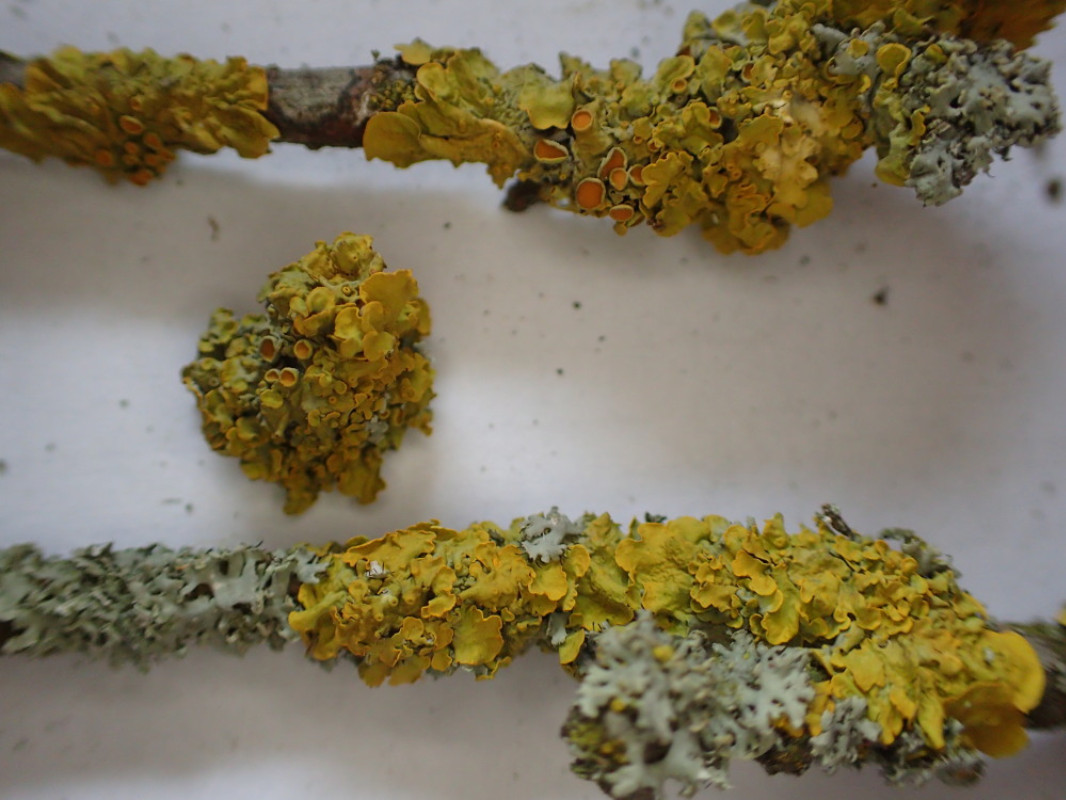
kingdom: Fungi
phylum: Ascomycota
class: Lecanoromycetes
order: Teloschistales
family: Teloschistaceae
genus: Xanthoria
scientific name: Xanthoria parietina
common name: almindelig væggelav
